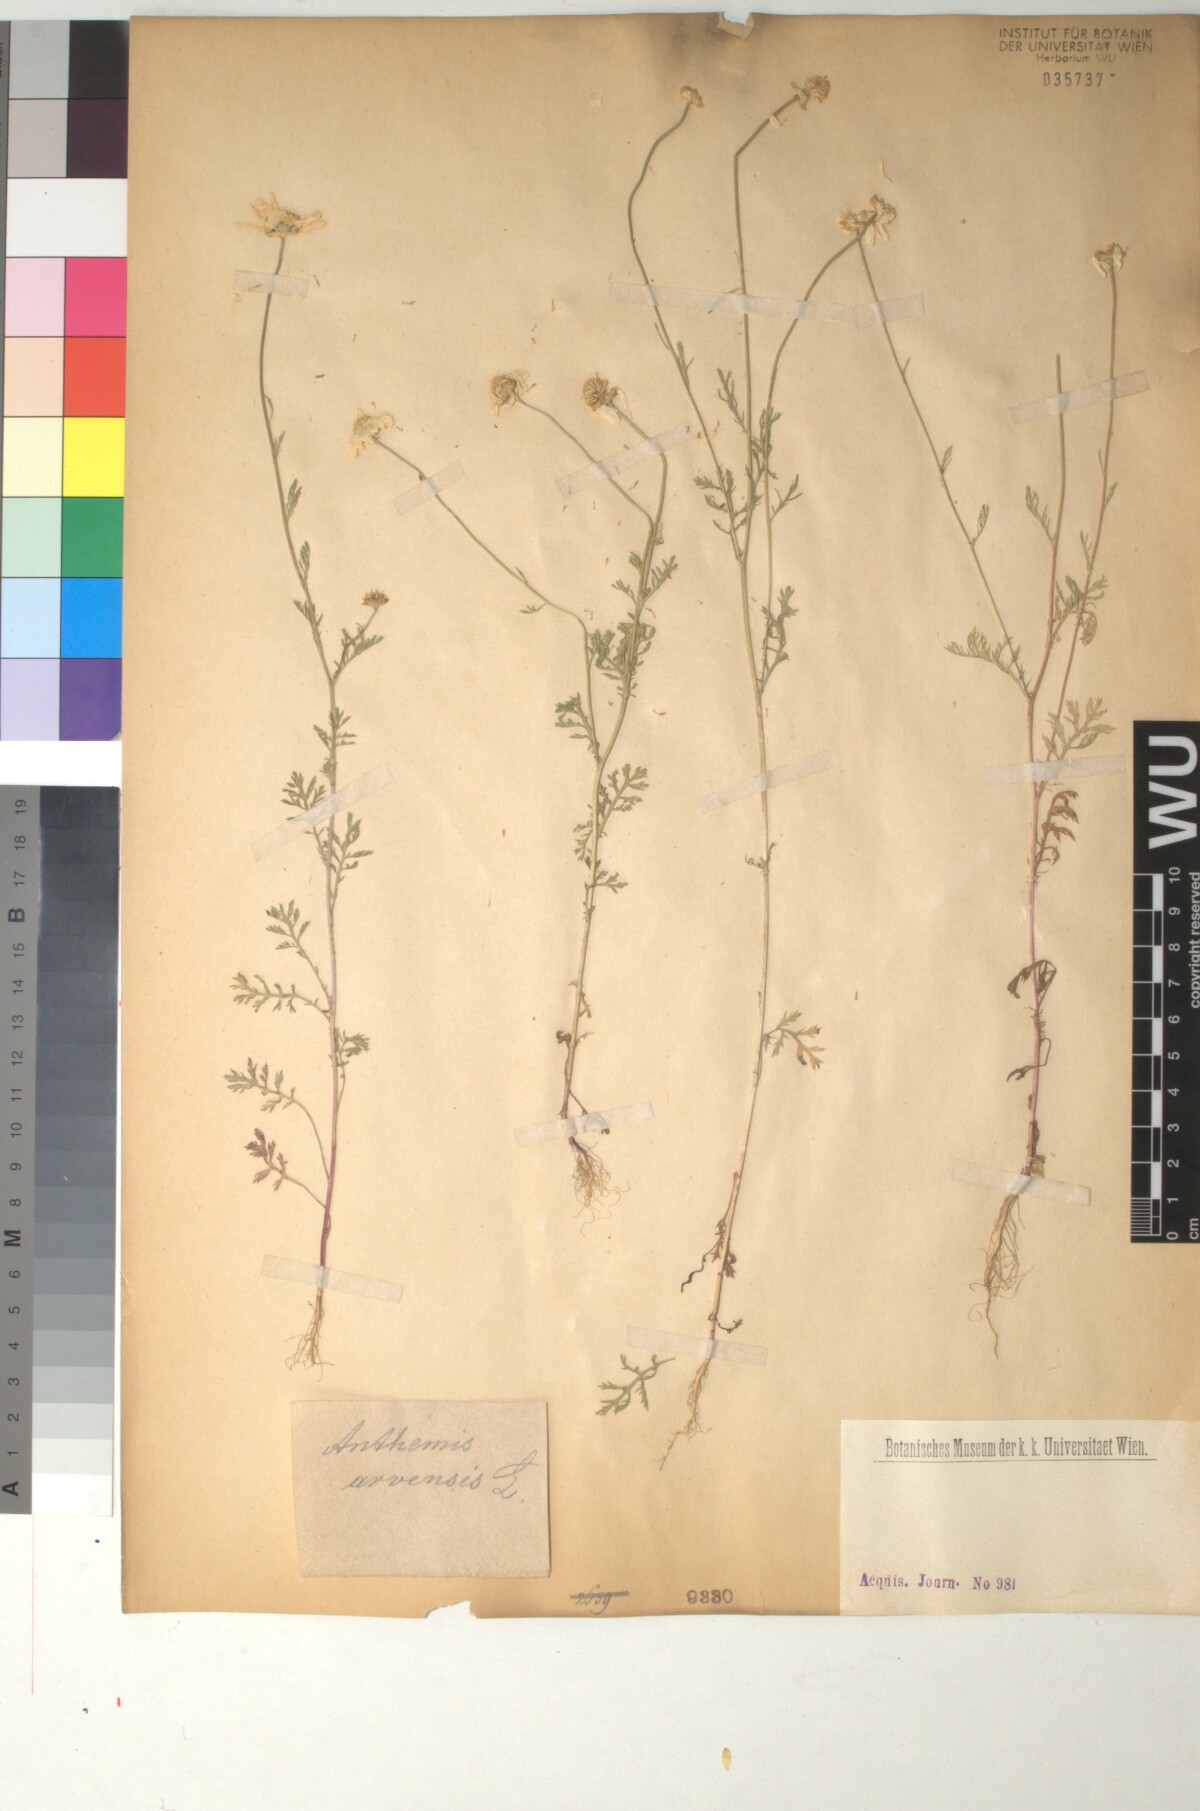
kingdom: Plantae
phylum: Tracheophyta
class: Magnoliopsida
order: Asterales
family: Asteraceae
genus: Anthemis
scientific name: Anthemis arvensis
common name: Corn chamomile
